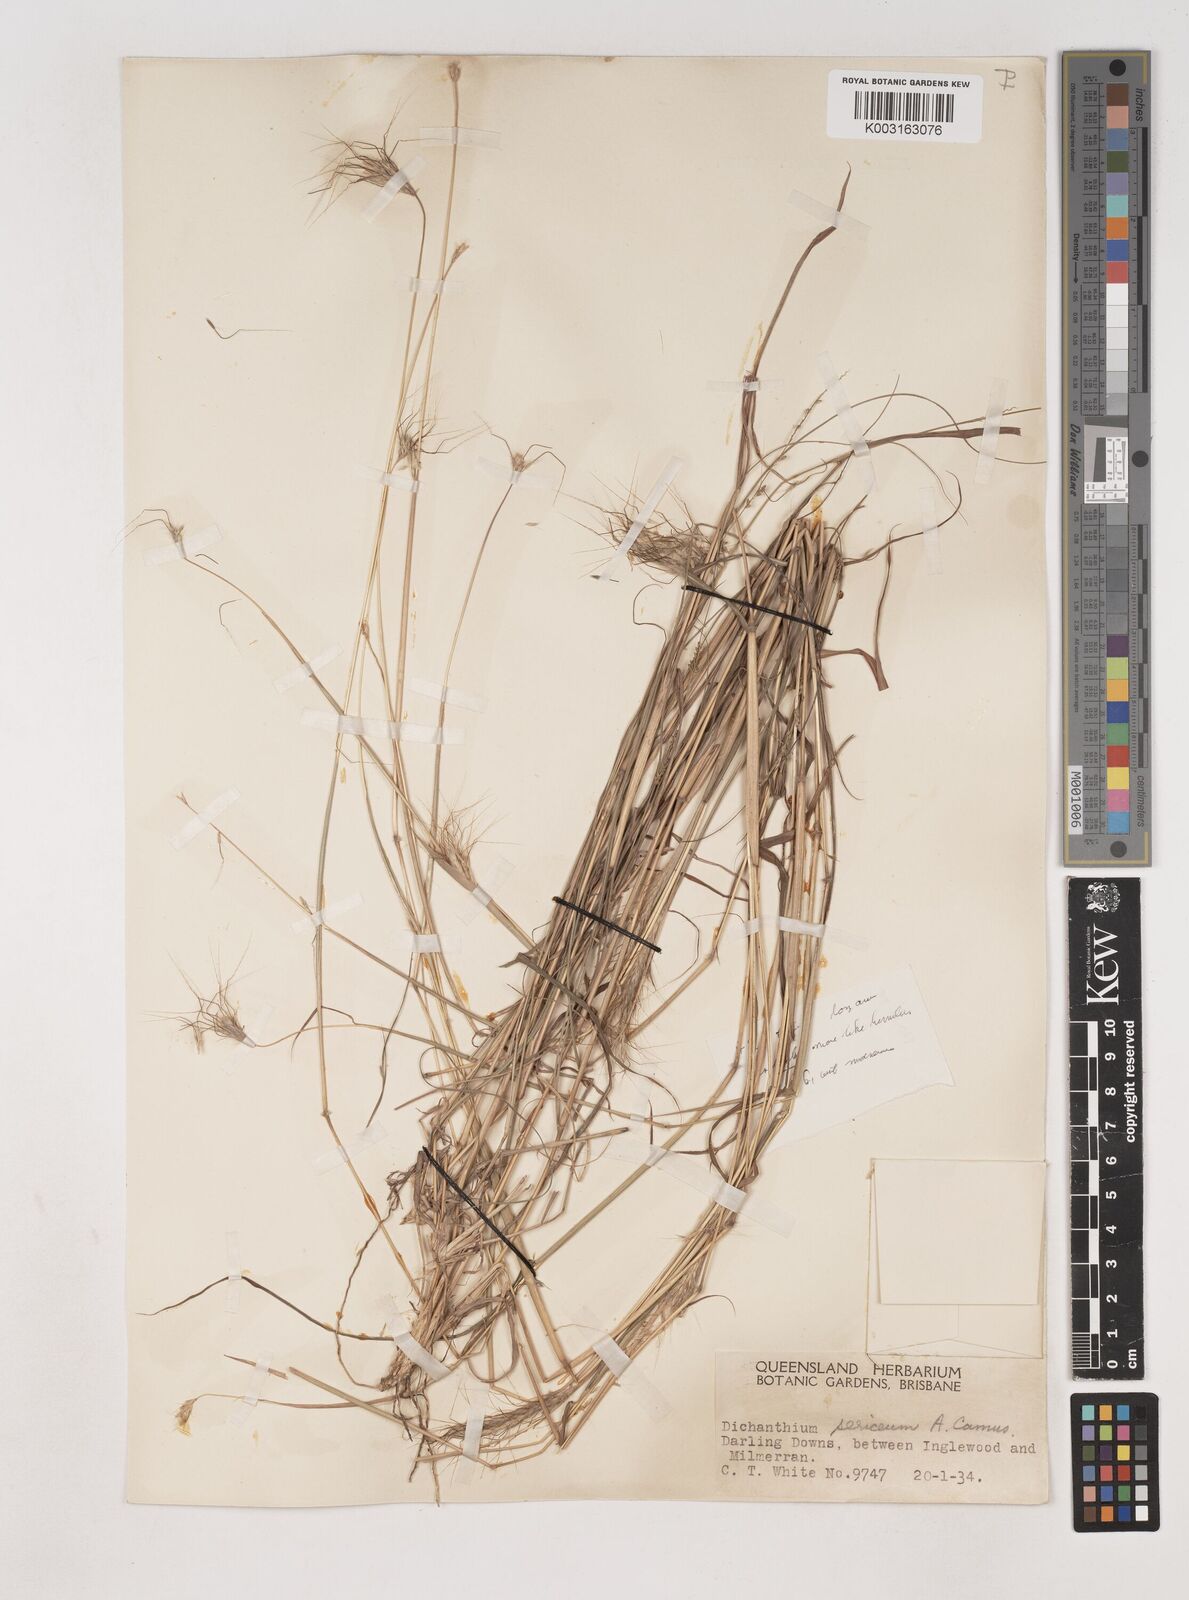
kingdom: Plantae
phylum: Tracheophyta
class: Liliopsida
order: Poales
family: Poaceae
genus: Dichanthium
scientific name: Dichanthium sericeum
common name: Silky bluestem
